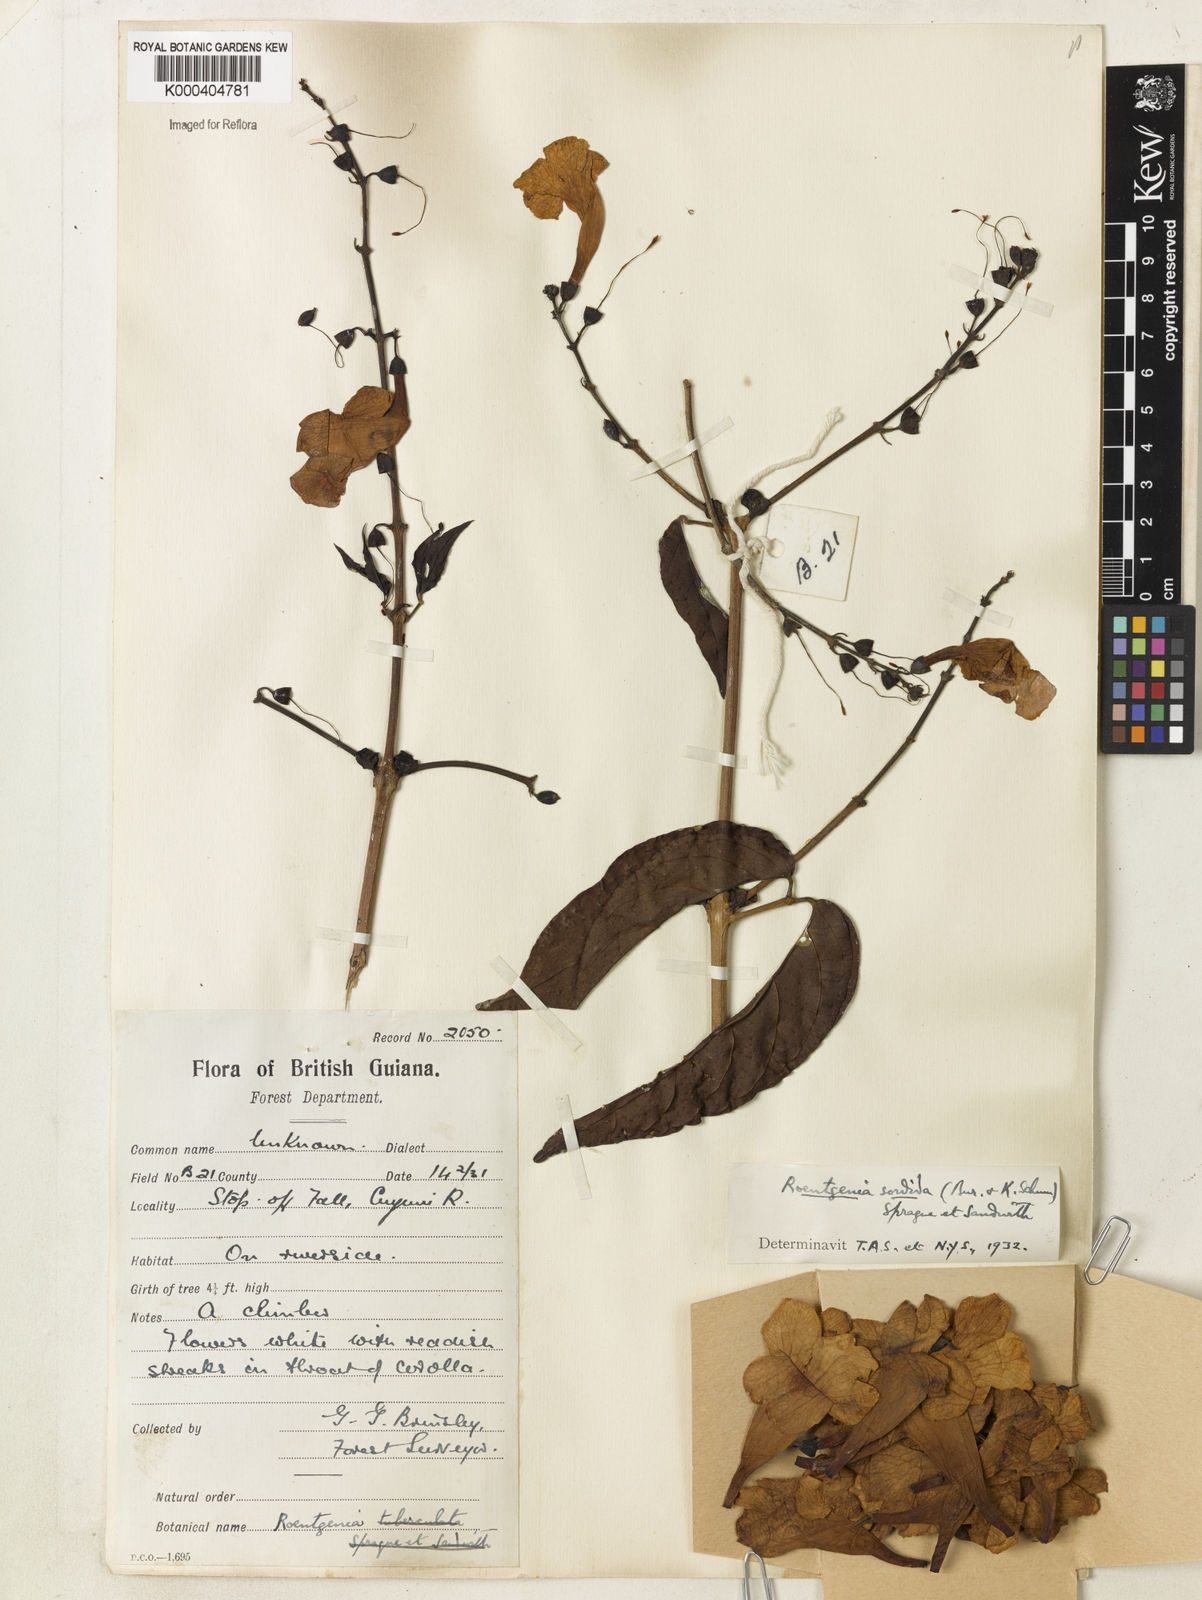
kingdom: Plantae
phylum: Tracheophyta
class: Magnoliopsida
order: Lamiales
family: Bignoniaceae
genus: Bignonia
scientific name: Bignonia sordida
